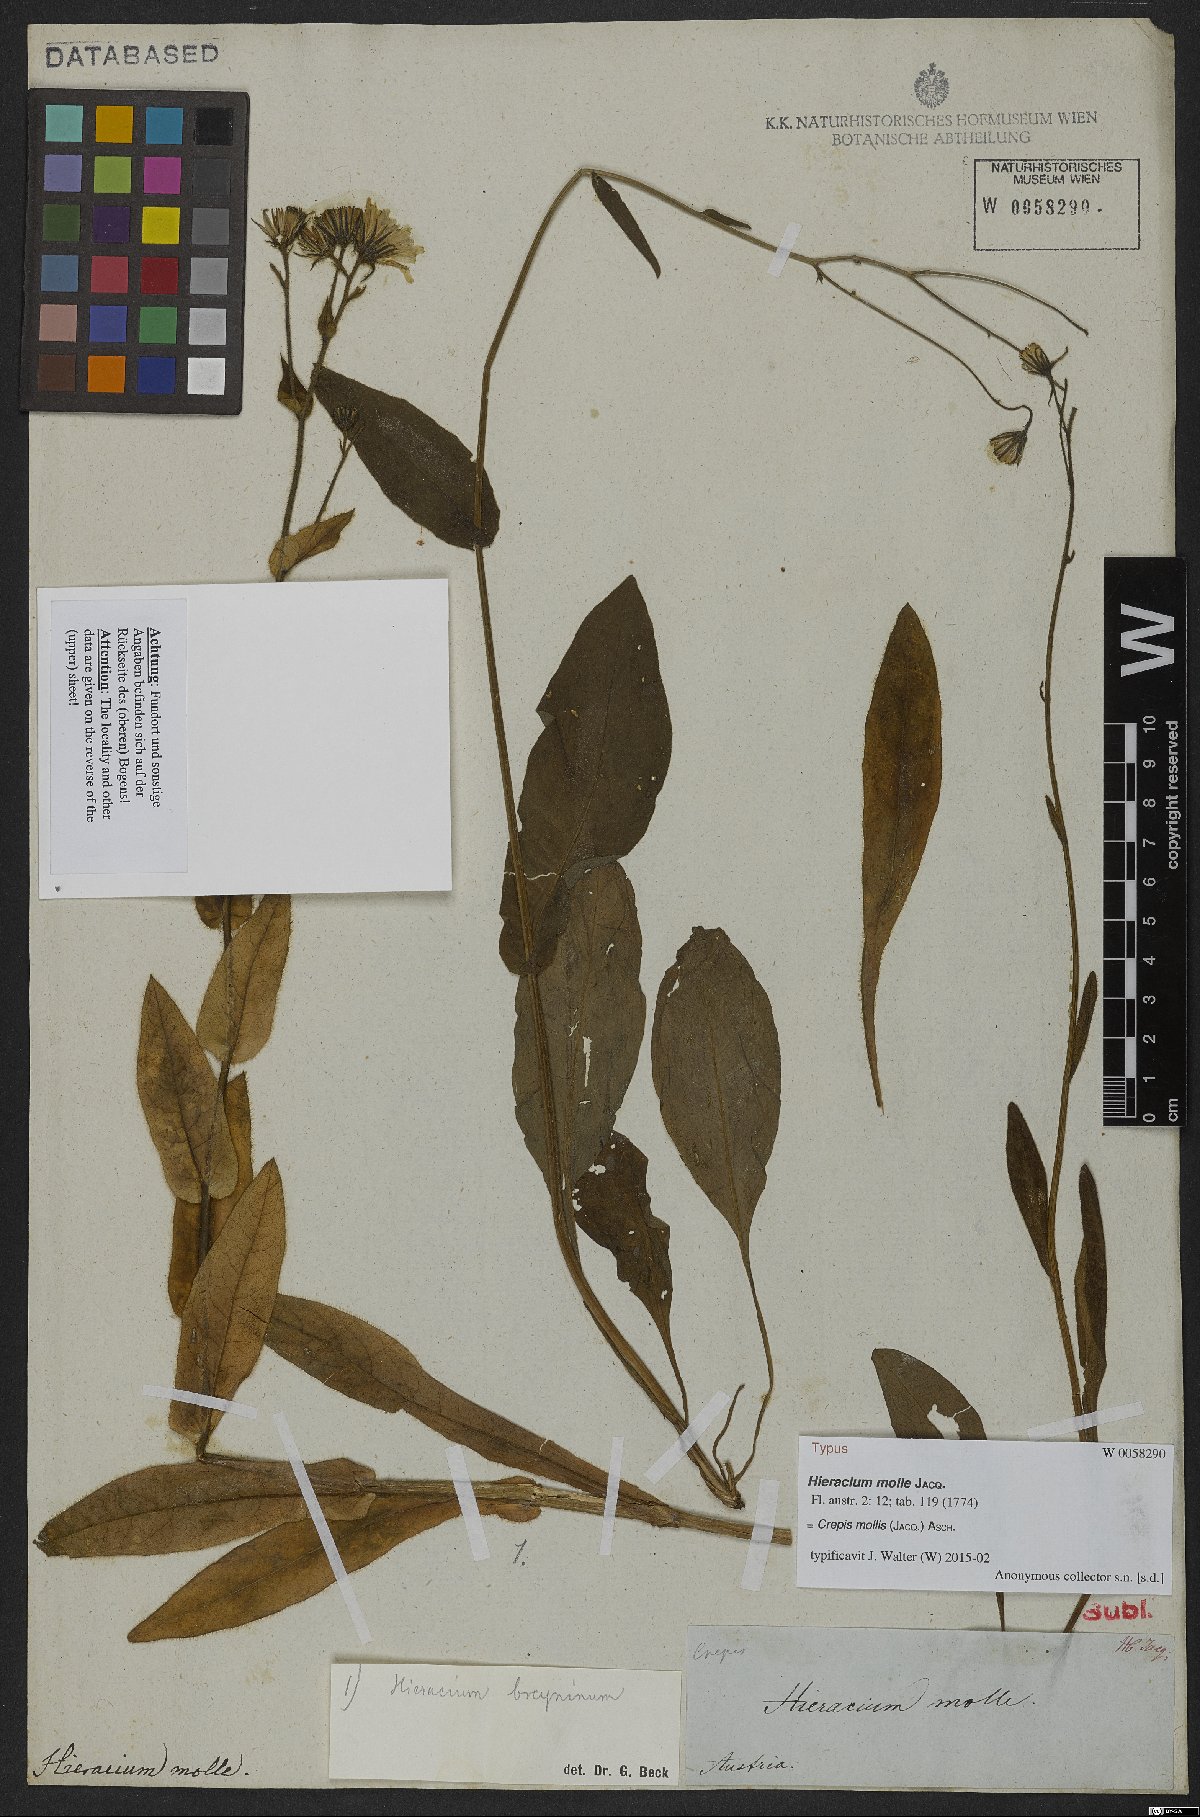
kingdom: Plantae
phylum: Tracheophyta
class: Magnoliopsida
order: Asterales
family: Asteraceae
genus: Crepis
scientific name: Crepis mollis
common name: Northern hawk's-beard
